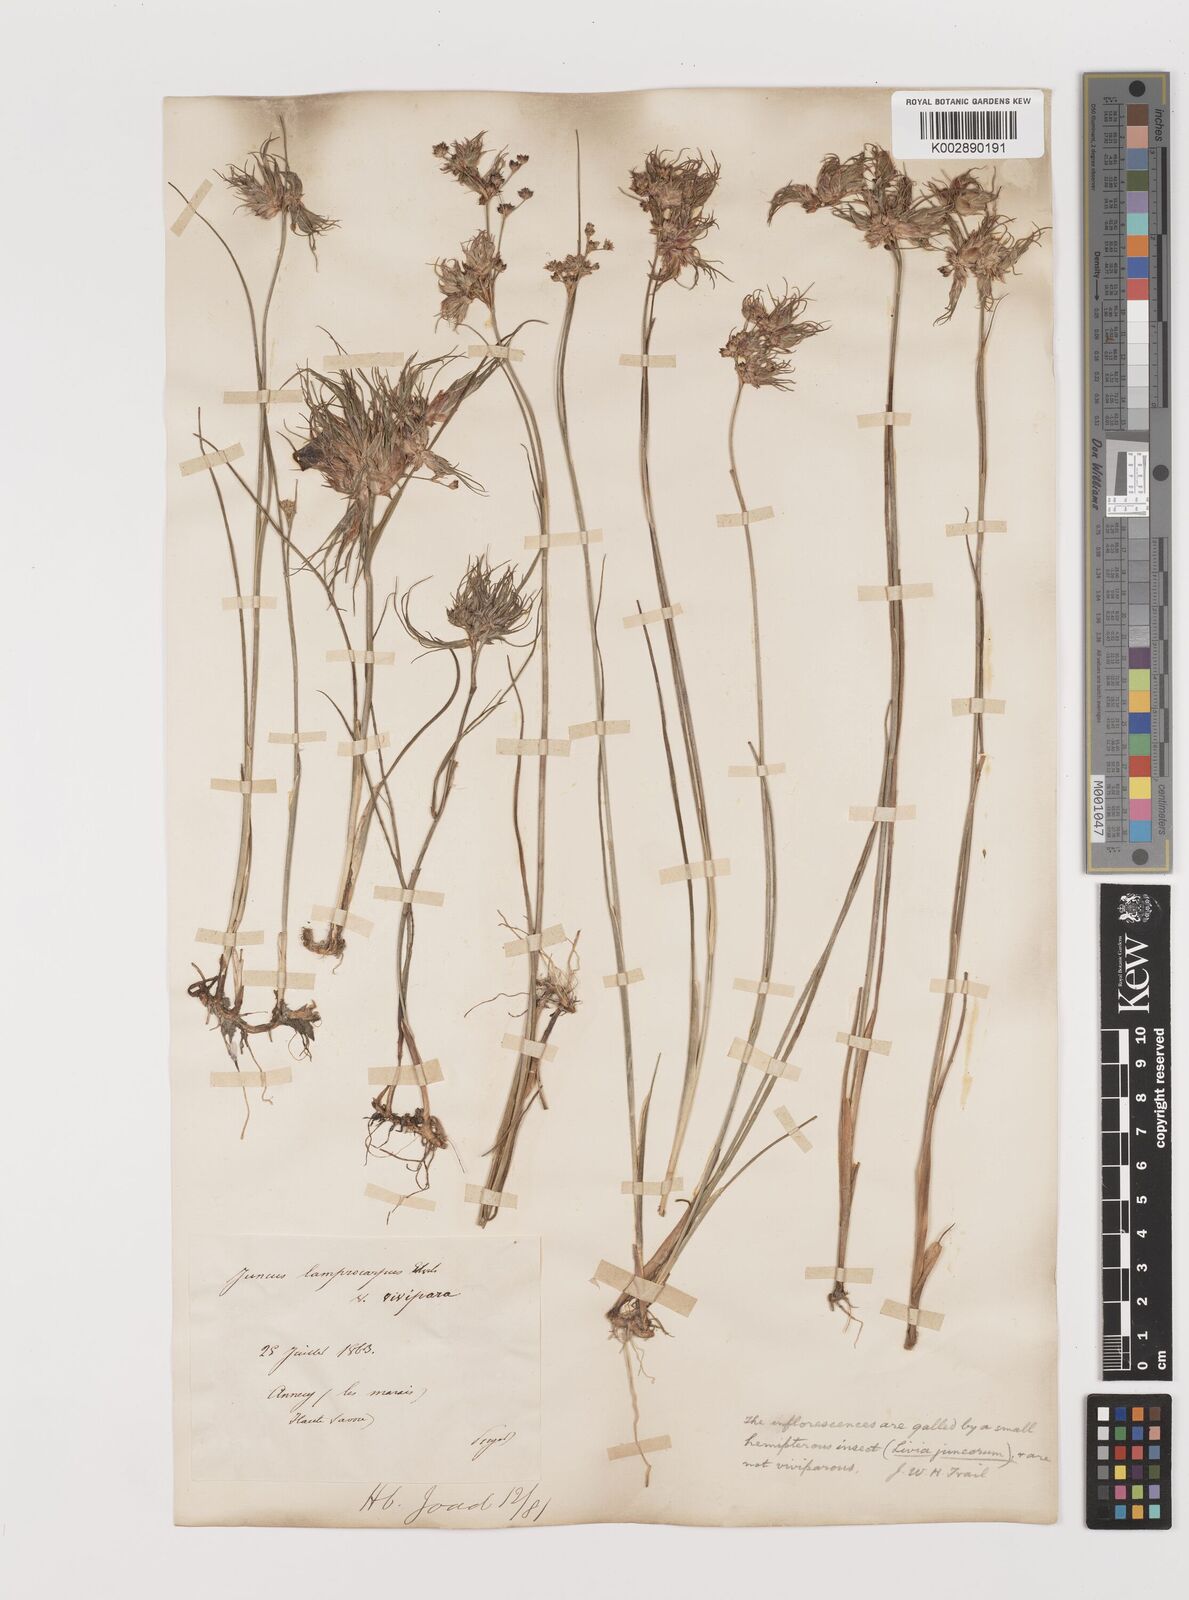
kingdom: Plantae
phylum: Tracheophyta
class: Liliopsida
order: Poales
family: Juncaceae
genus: Juncus
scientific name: Juncus articulatus
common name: Jointed rush
